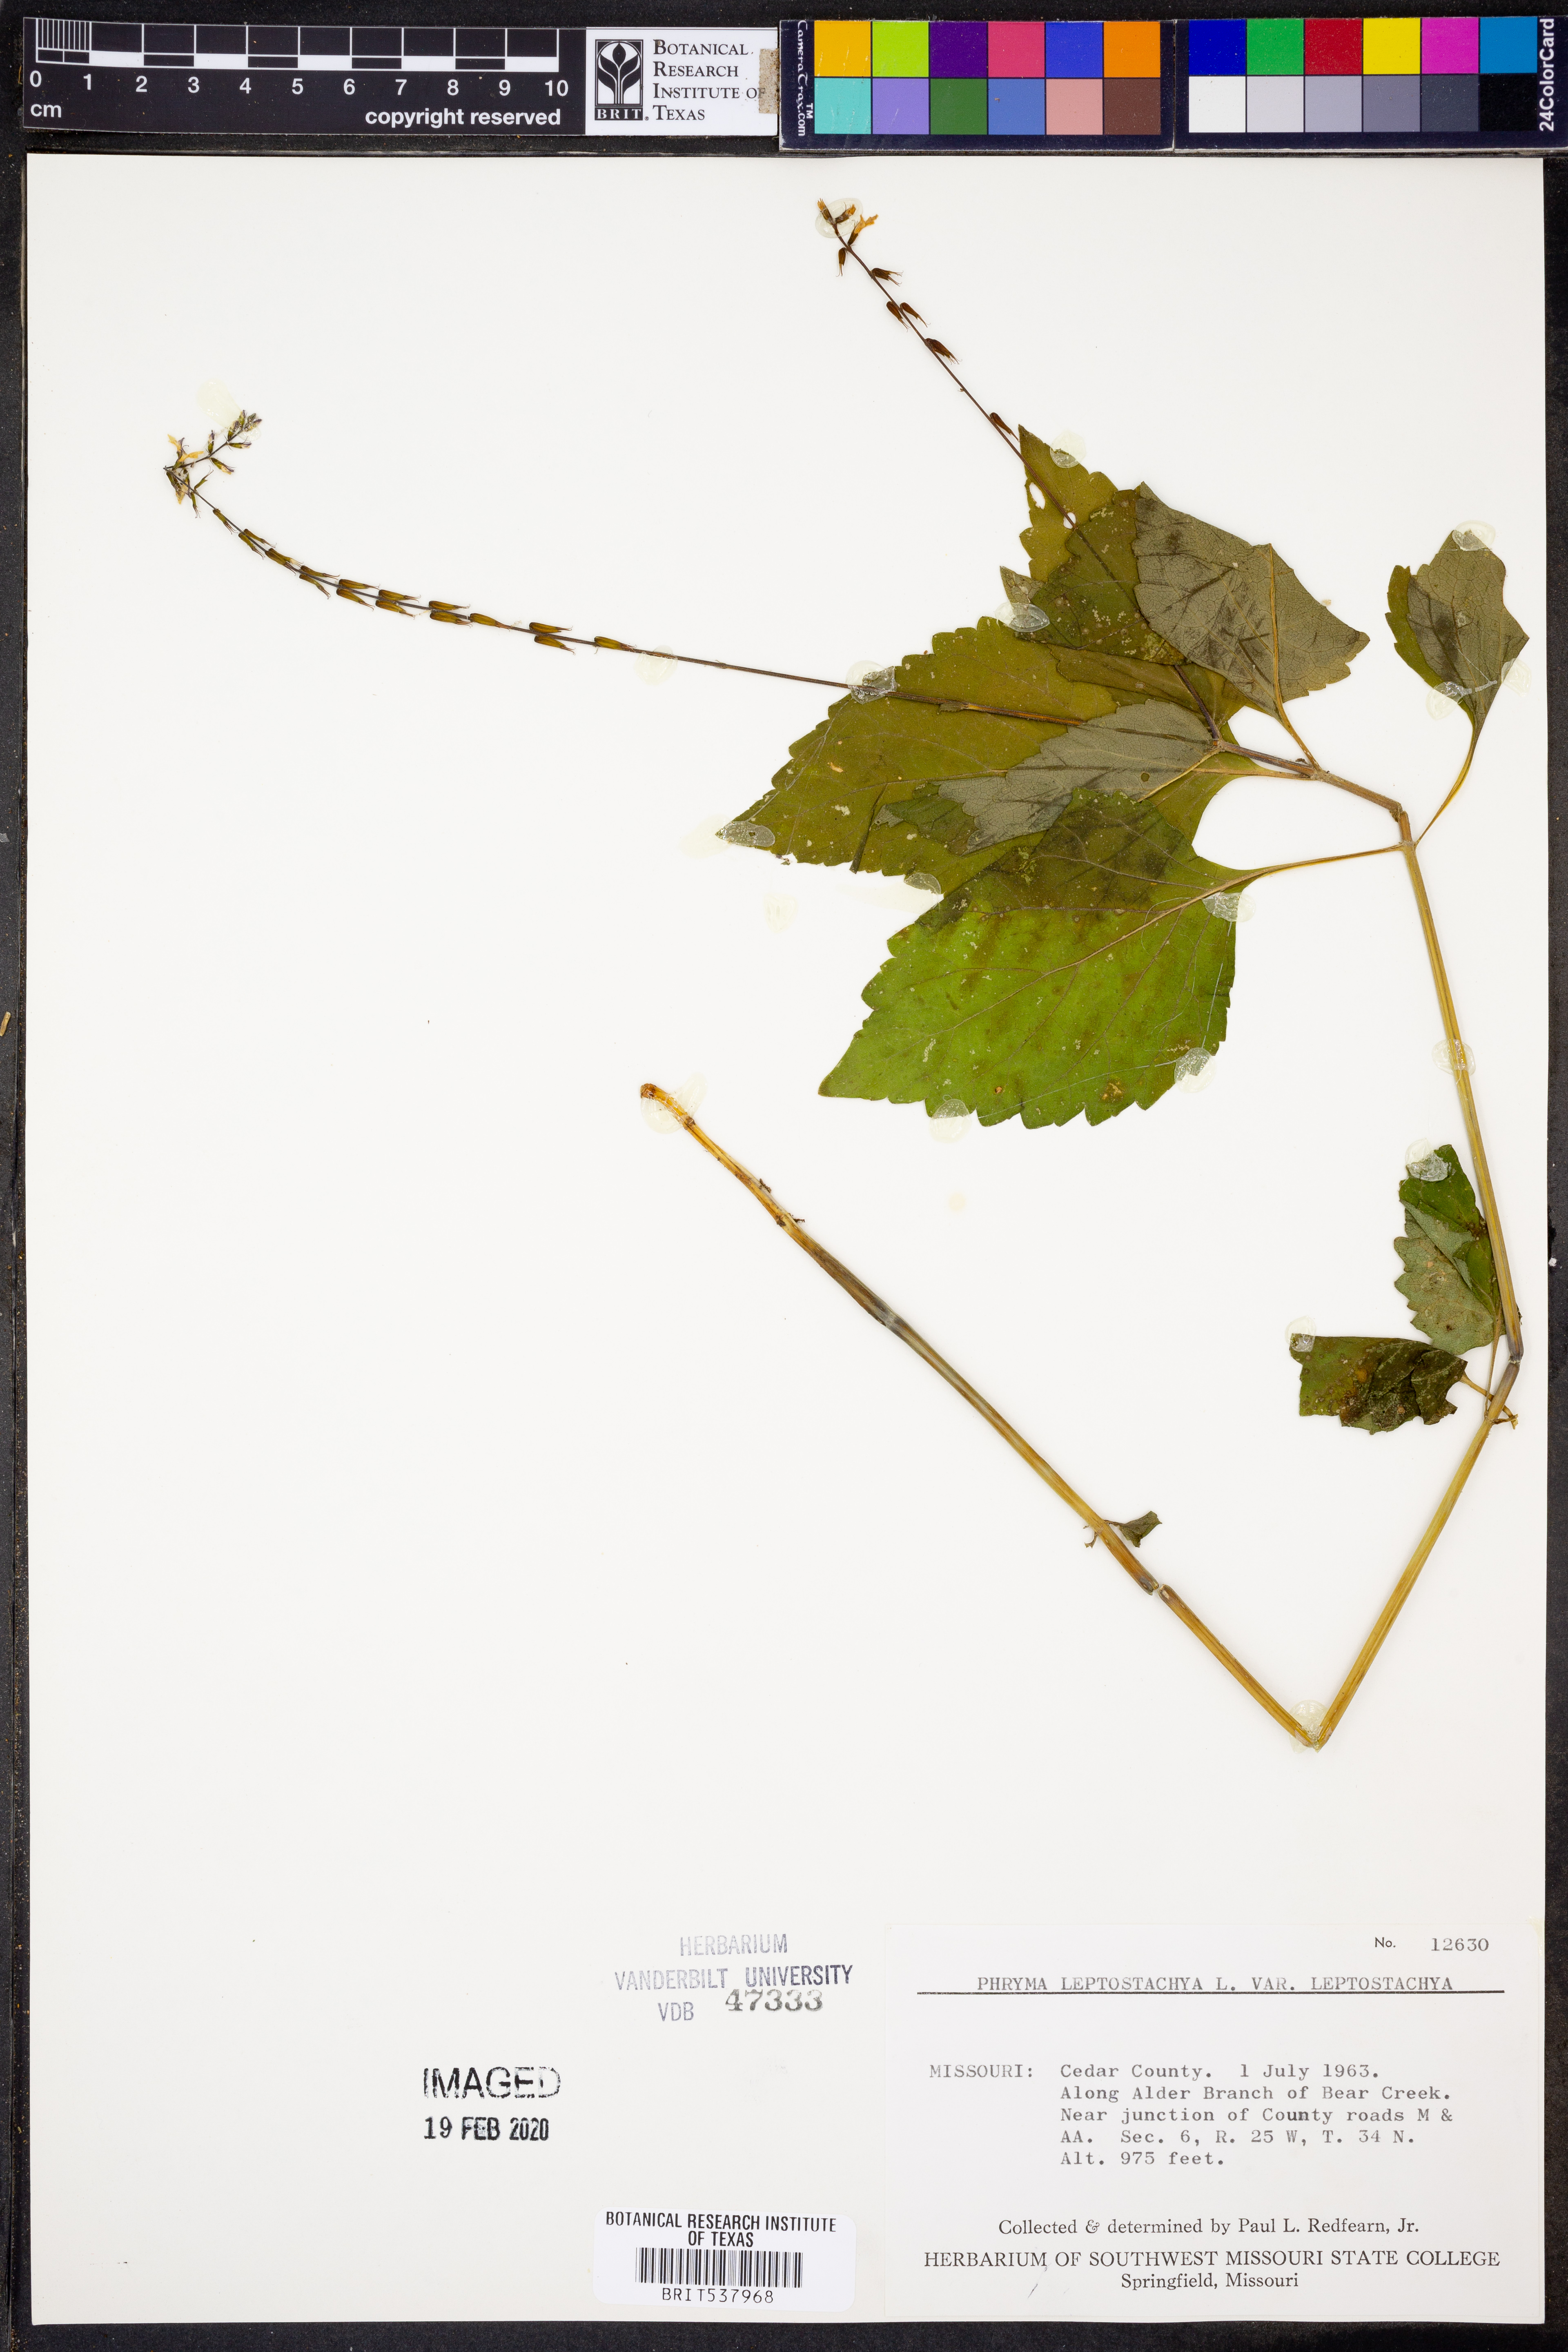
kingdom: Plantae
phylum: Tracheophyta
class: Magnoliopsida
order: Lamiales
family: Phrymaceae
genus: Phryma
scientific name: Phryma leptostachya
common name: American lopseed
